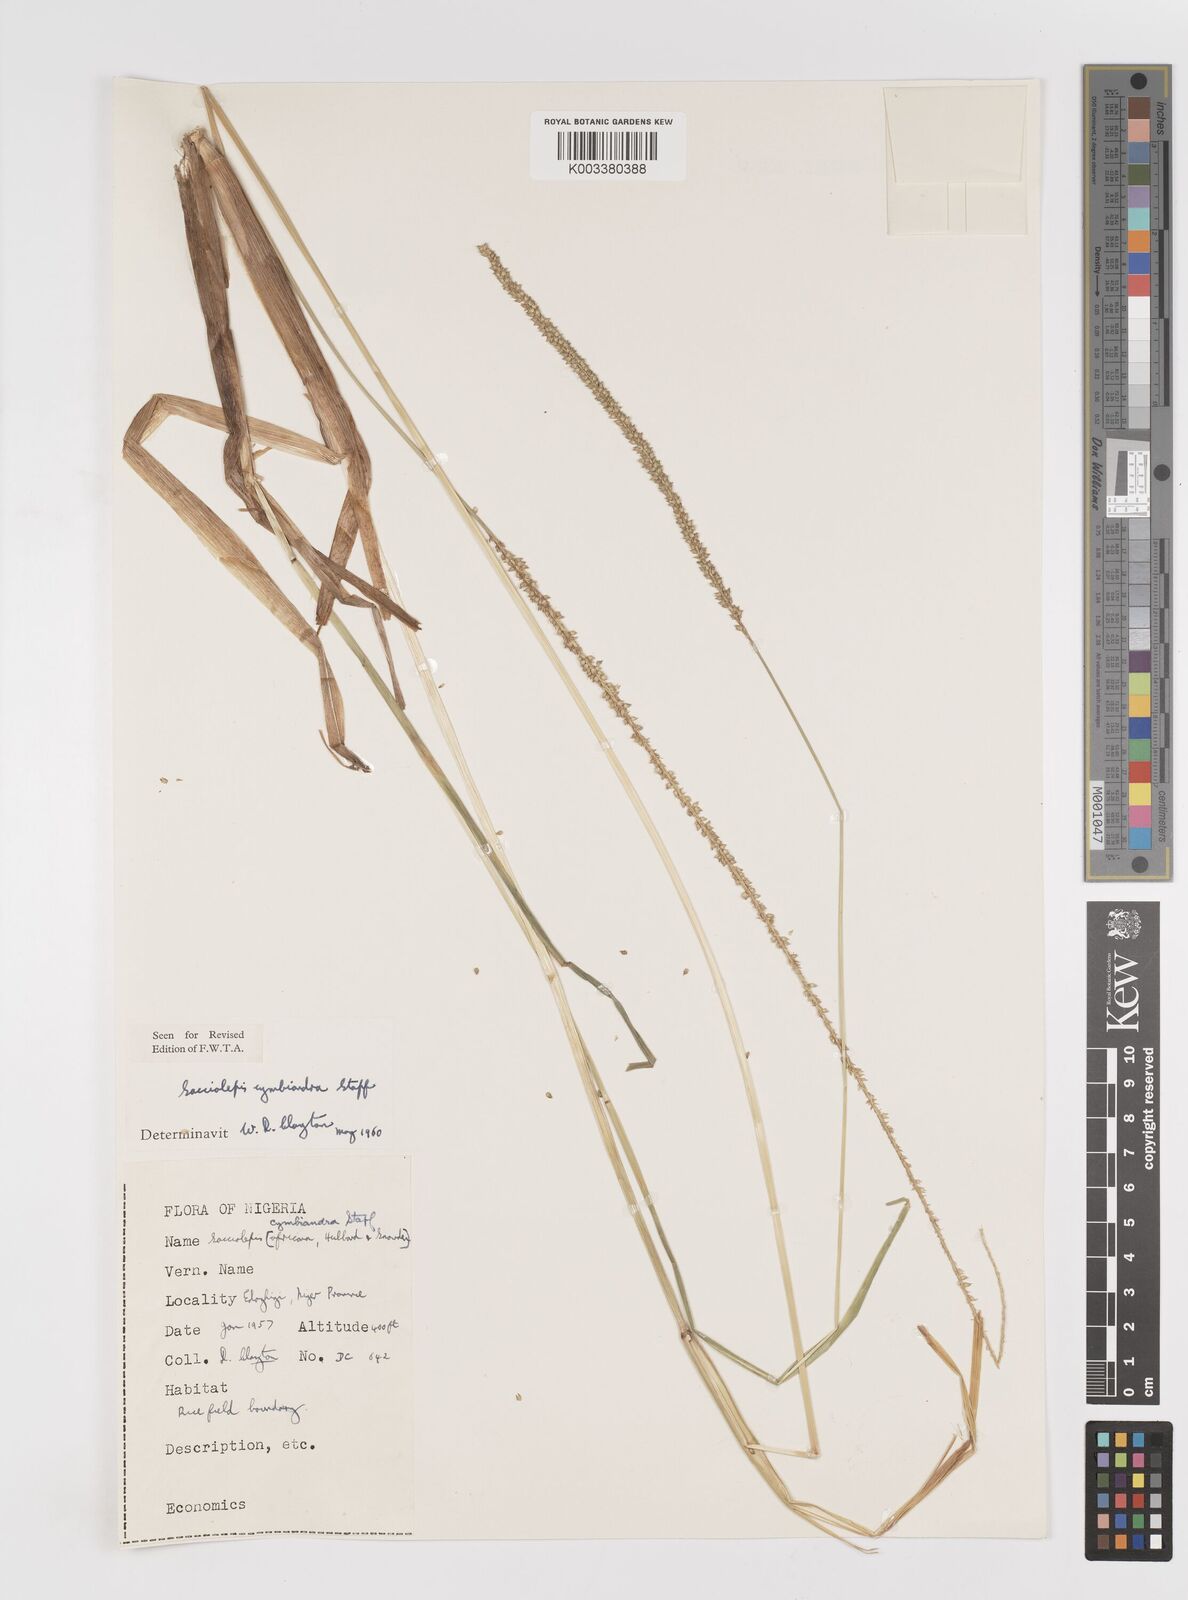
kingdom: Plantae
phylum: Tracheophyta
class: Liliopsida
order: Poales
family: Poaceae
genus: Sacciolepis
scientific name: Sacciolepis cymbiandra
